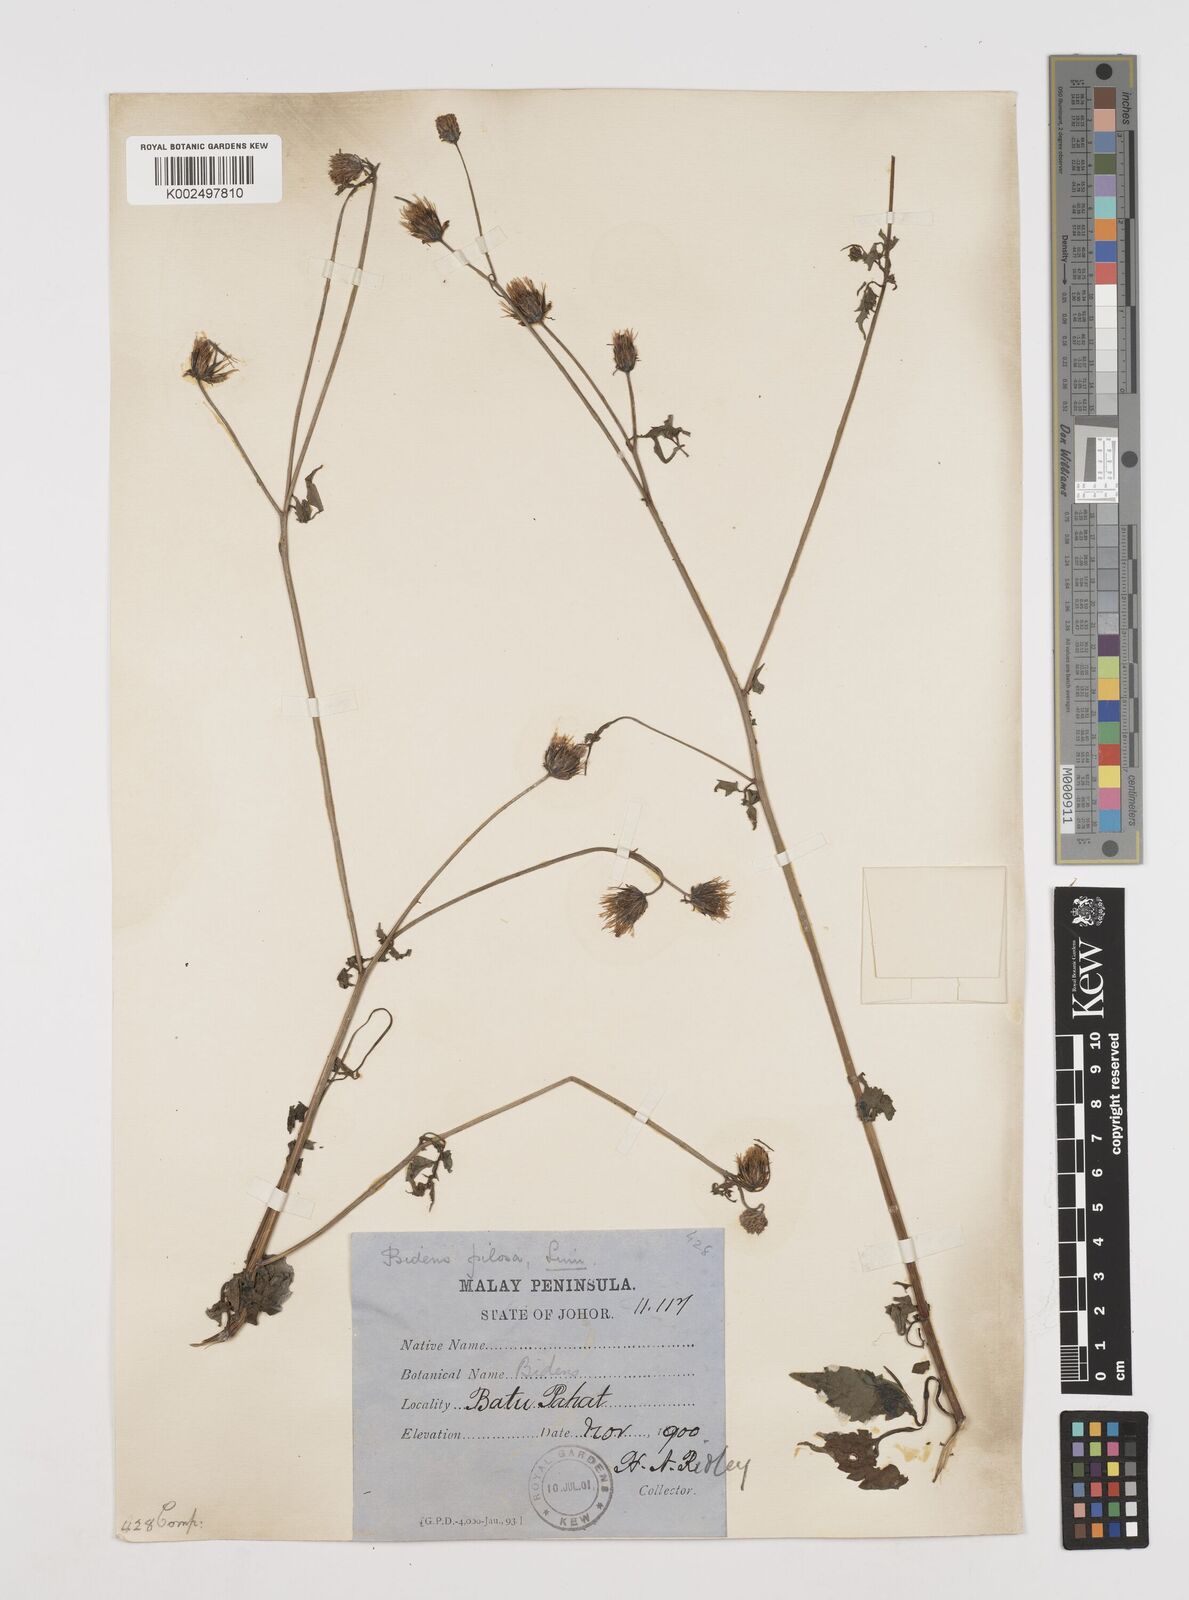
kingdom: Plantae
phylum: Tracheophyta
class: Magnoliopsida
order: Asterales
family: Asteraceae
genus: Bidens
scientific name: Bidens pilosa
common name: Black-jack
